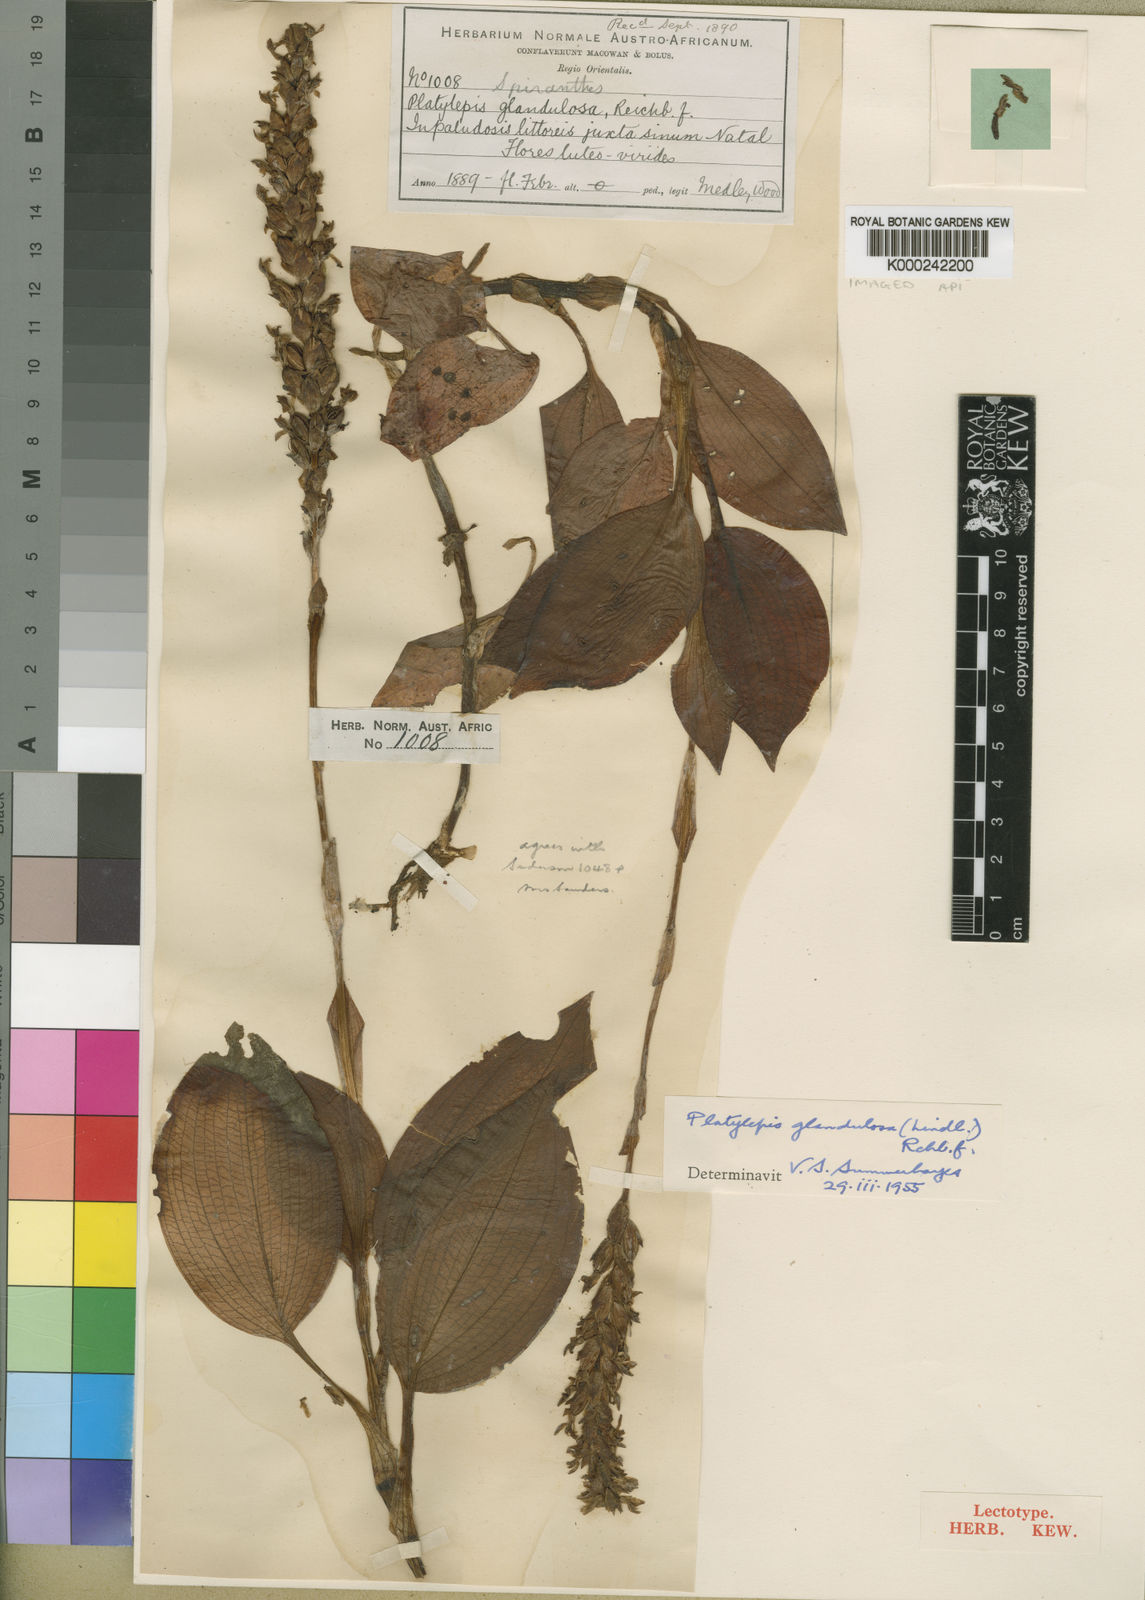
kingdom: Plantae
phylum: Tracheophyta
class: Liliopsida
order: Asparagales
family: Orchidaceae
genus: Platylepis
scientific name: Platylepis glandulosa
